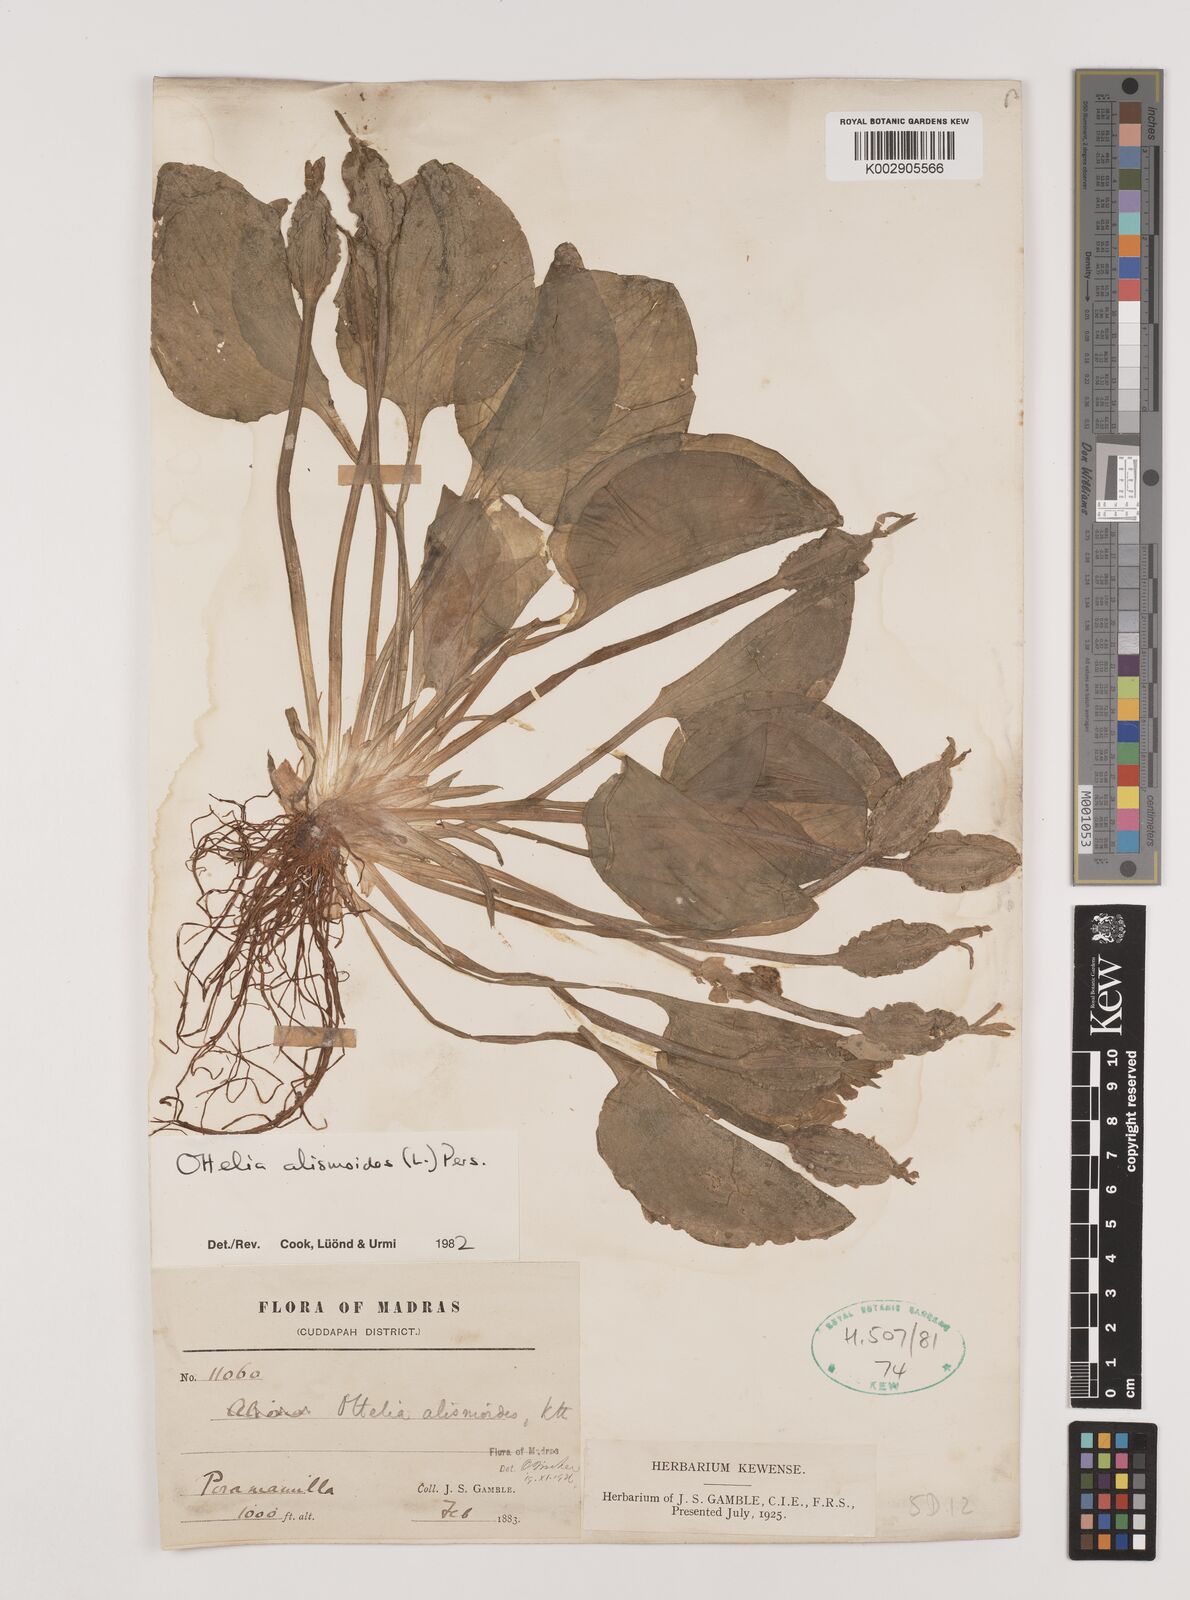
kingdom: Plantae
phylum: Tracheophyta
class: Liliopsida
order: Alismatales
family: Hydrocharitaceae
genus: Ottelia
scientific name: Ottelia alismoides
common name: Duck-lettuce
